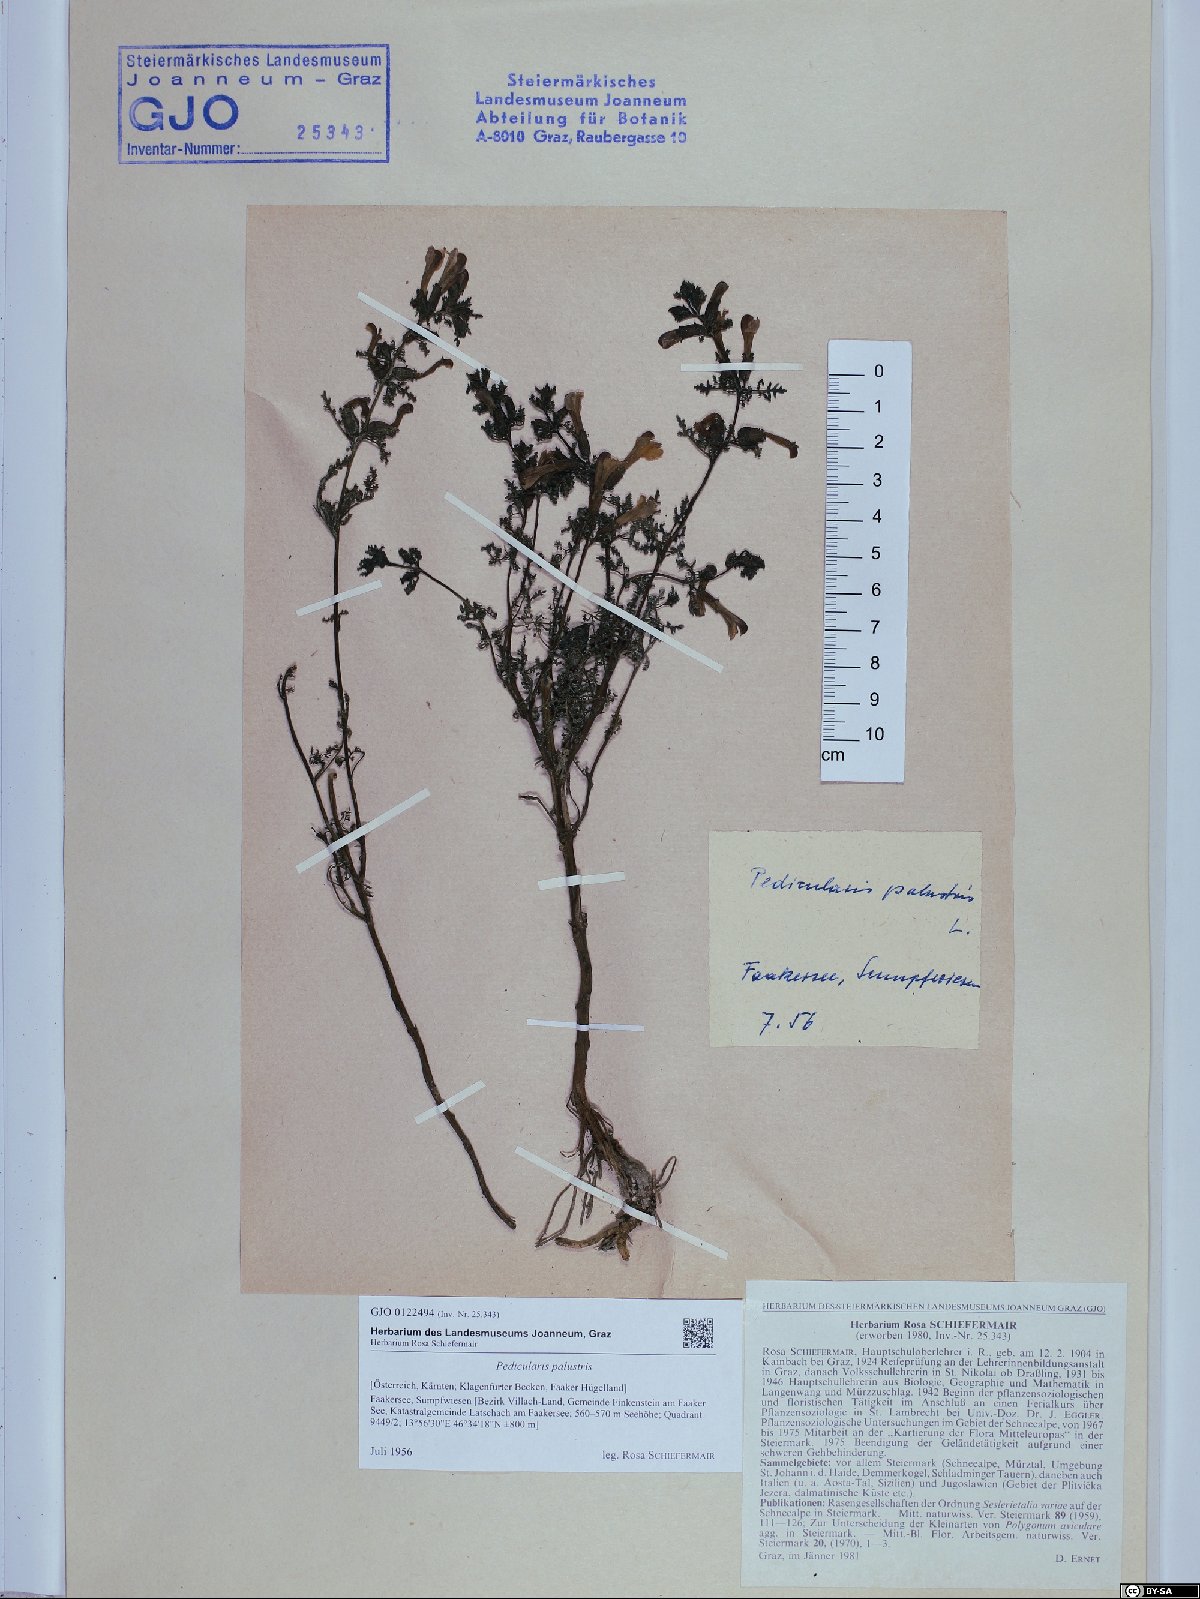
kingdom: Plantae
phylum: Tracheophyta
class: Magnoliopsida
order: Lamiales
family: Orobanchaceae
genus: Pedicularis
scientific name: Pedicularis palustris
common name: Marsh lousewort
